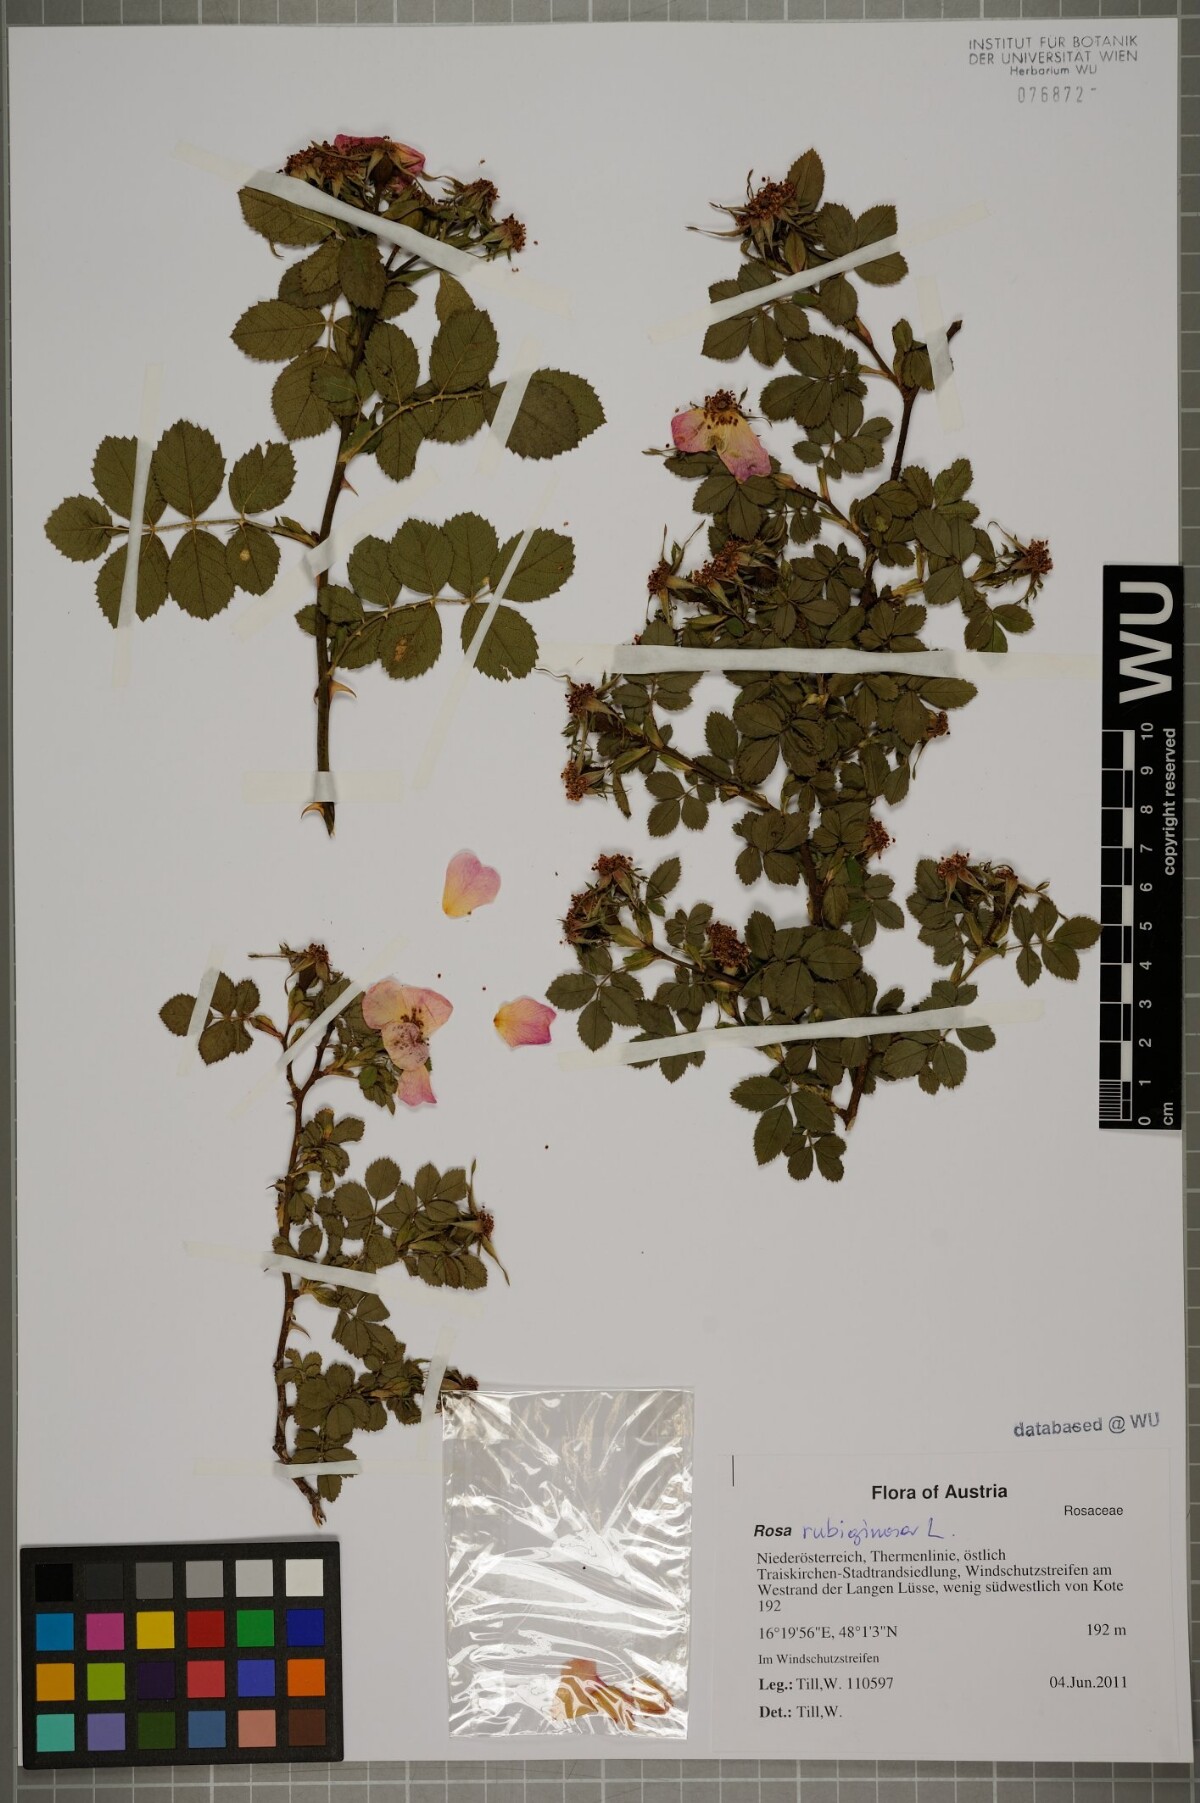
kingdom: Plantae
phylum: Tracheophyta
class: Magnoliopsida
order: Rosales
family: Rosaceae
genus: Rosa
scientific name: Rosa rubiginosa
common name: Sweet-briar
